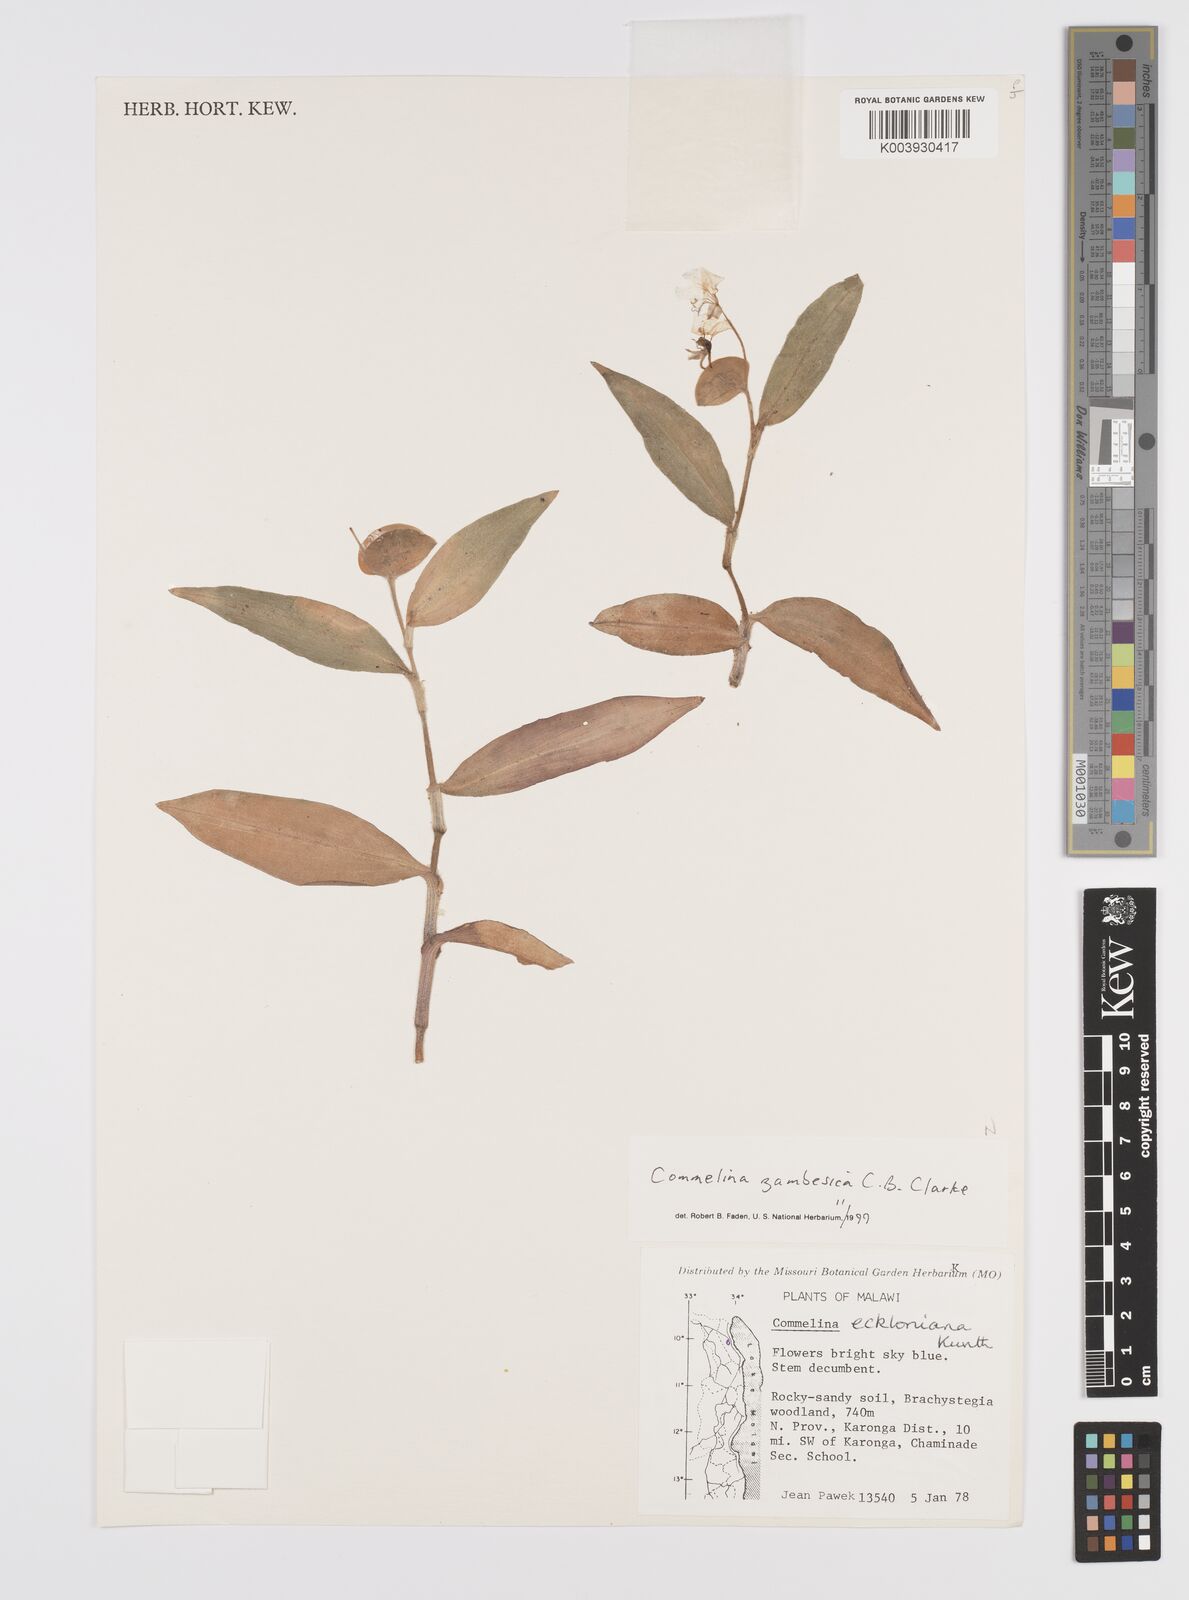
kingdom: Plantae
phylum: Tracheophyta
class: Liliopsida
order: Commelinales
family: Commelinaceae
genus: Commelina
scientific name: Commelina zambesica
